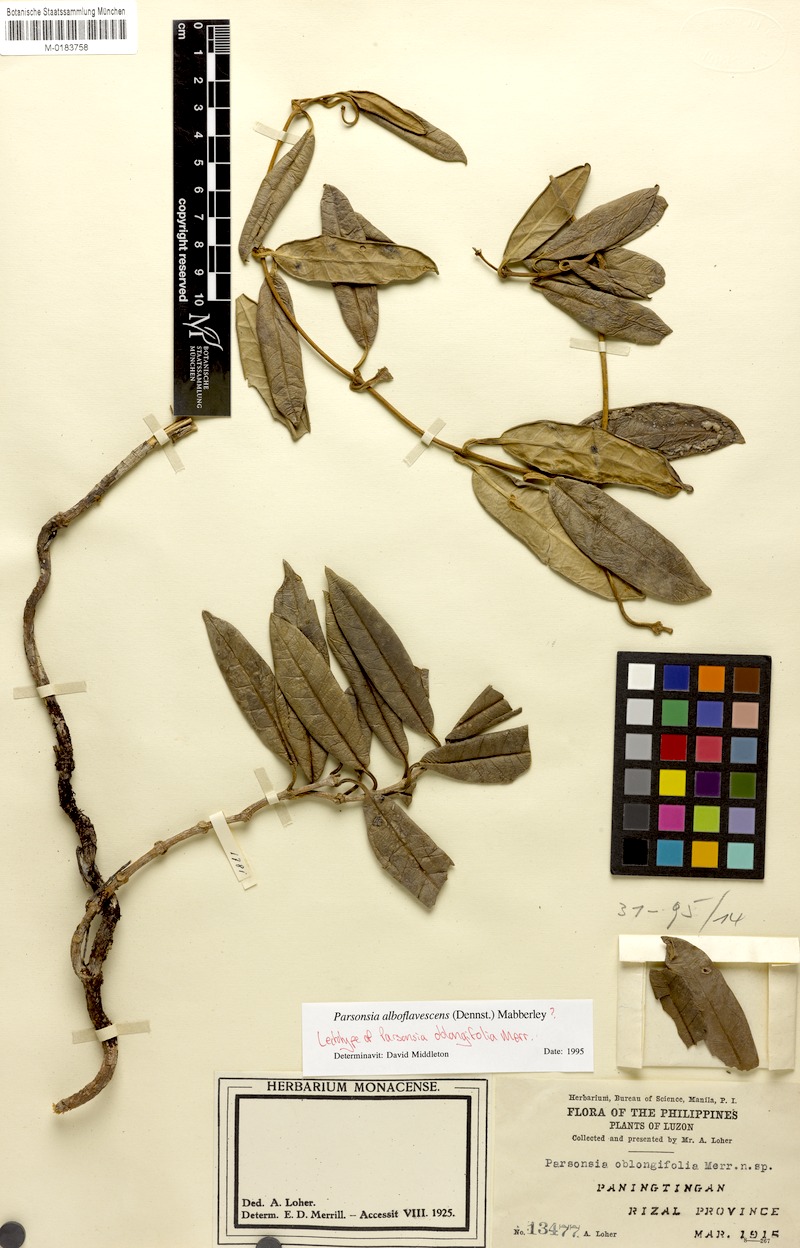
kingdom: Plantae
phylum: Tracheophyta
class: Magnoliopsida
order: Gentianales
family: Apocynaceae
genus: Parsonsia
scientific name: Parsonsia alboflavescens
